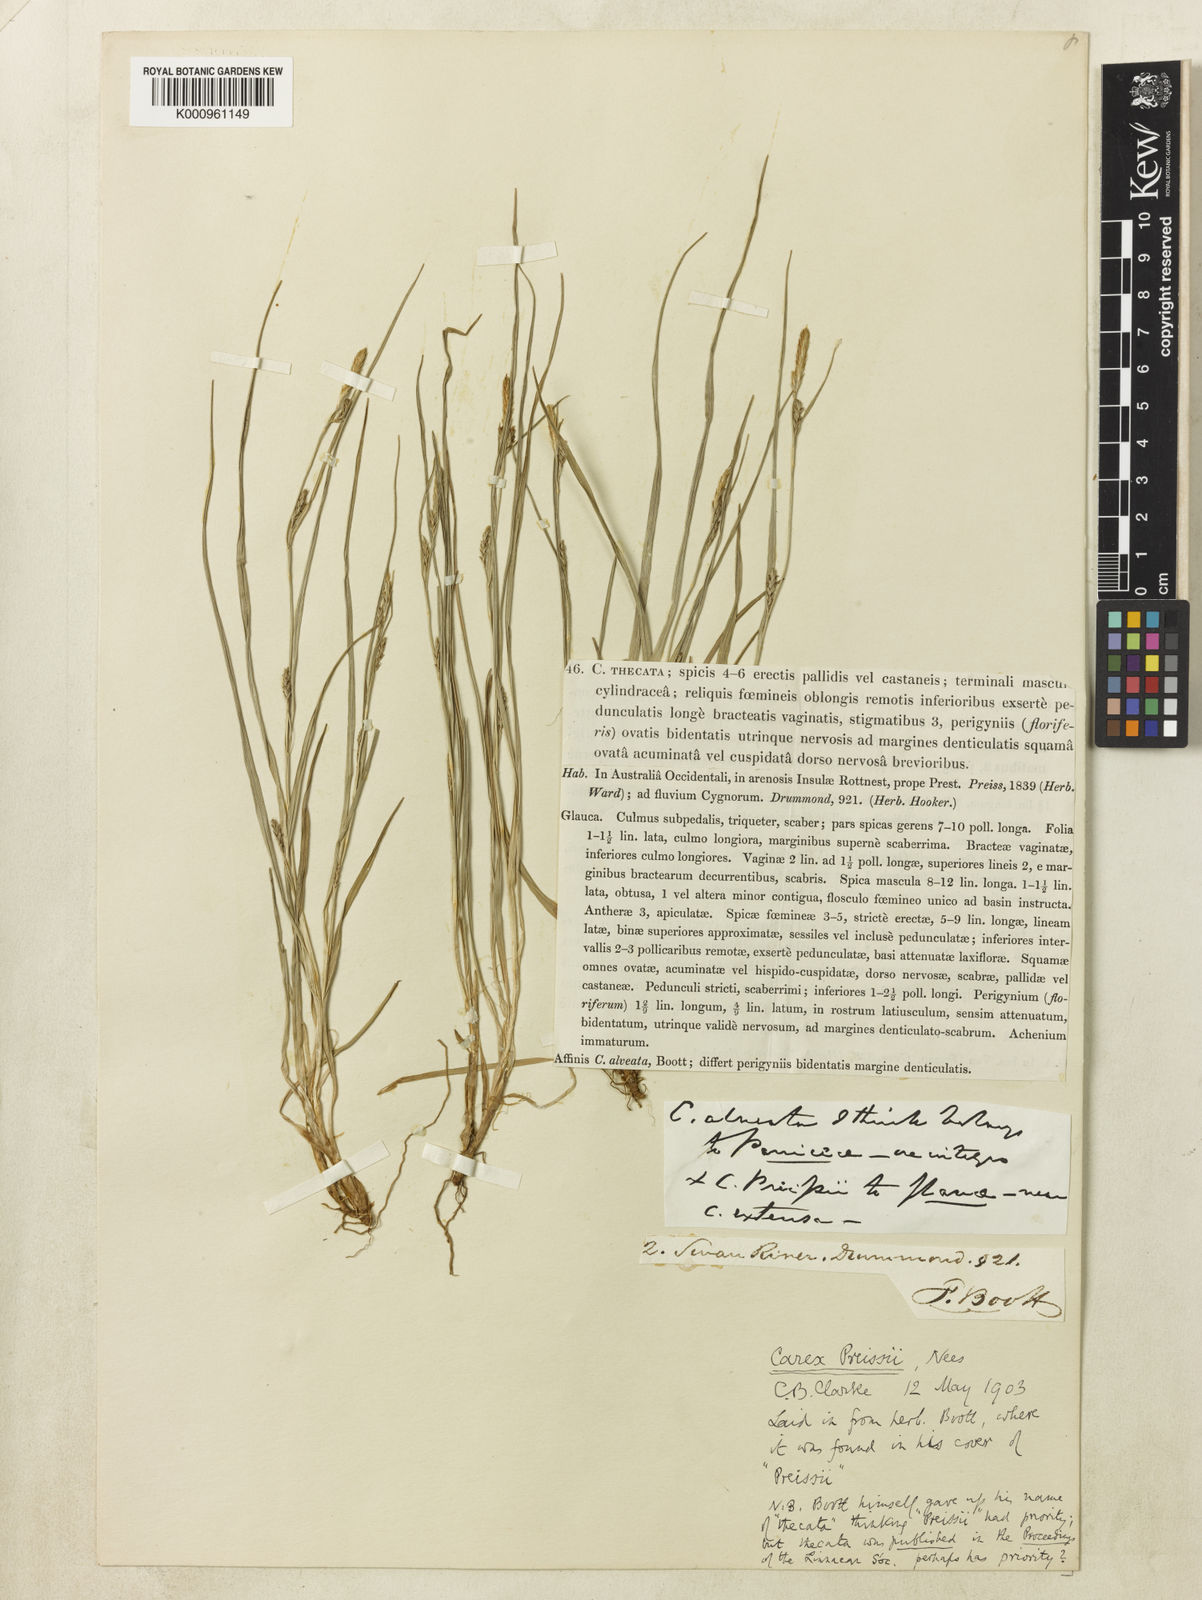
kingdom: Plantae
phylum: Tracheophyta
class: Liliopsida
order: Poales
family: Cyperaceae
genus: Carex
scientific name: Carex preissii
